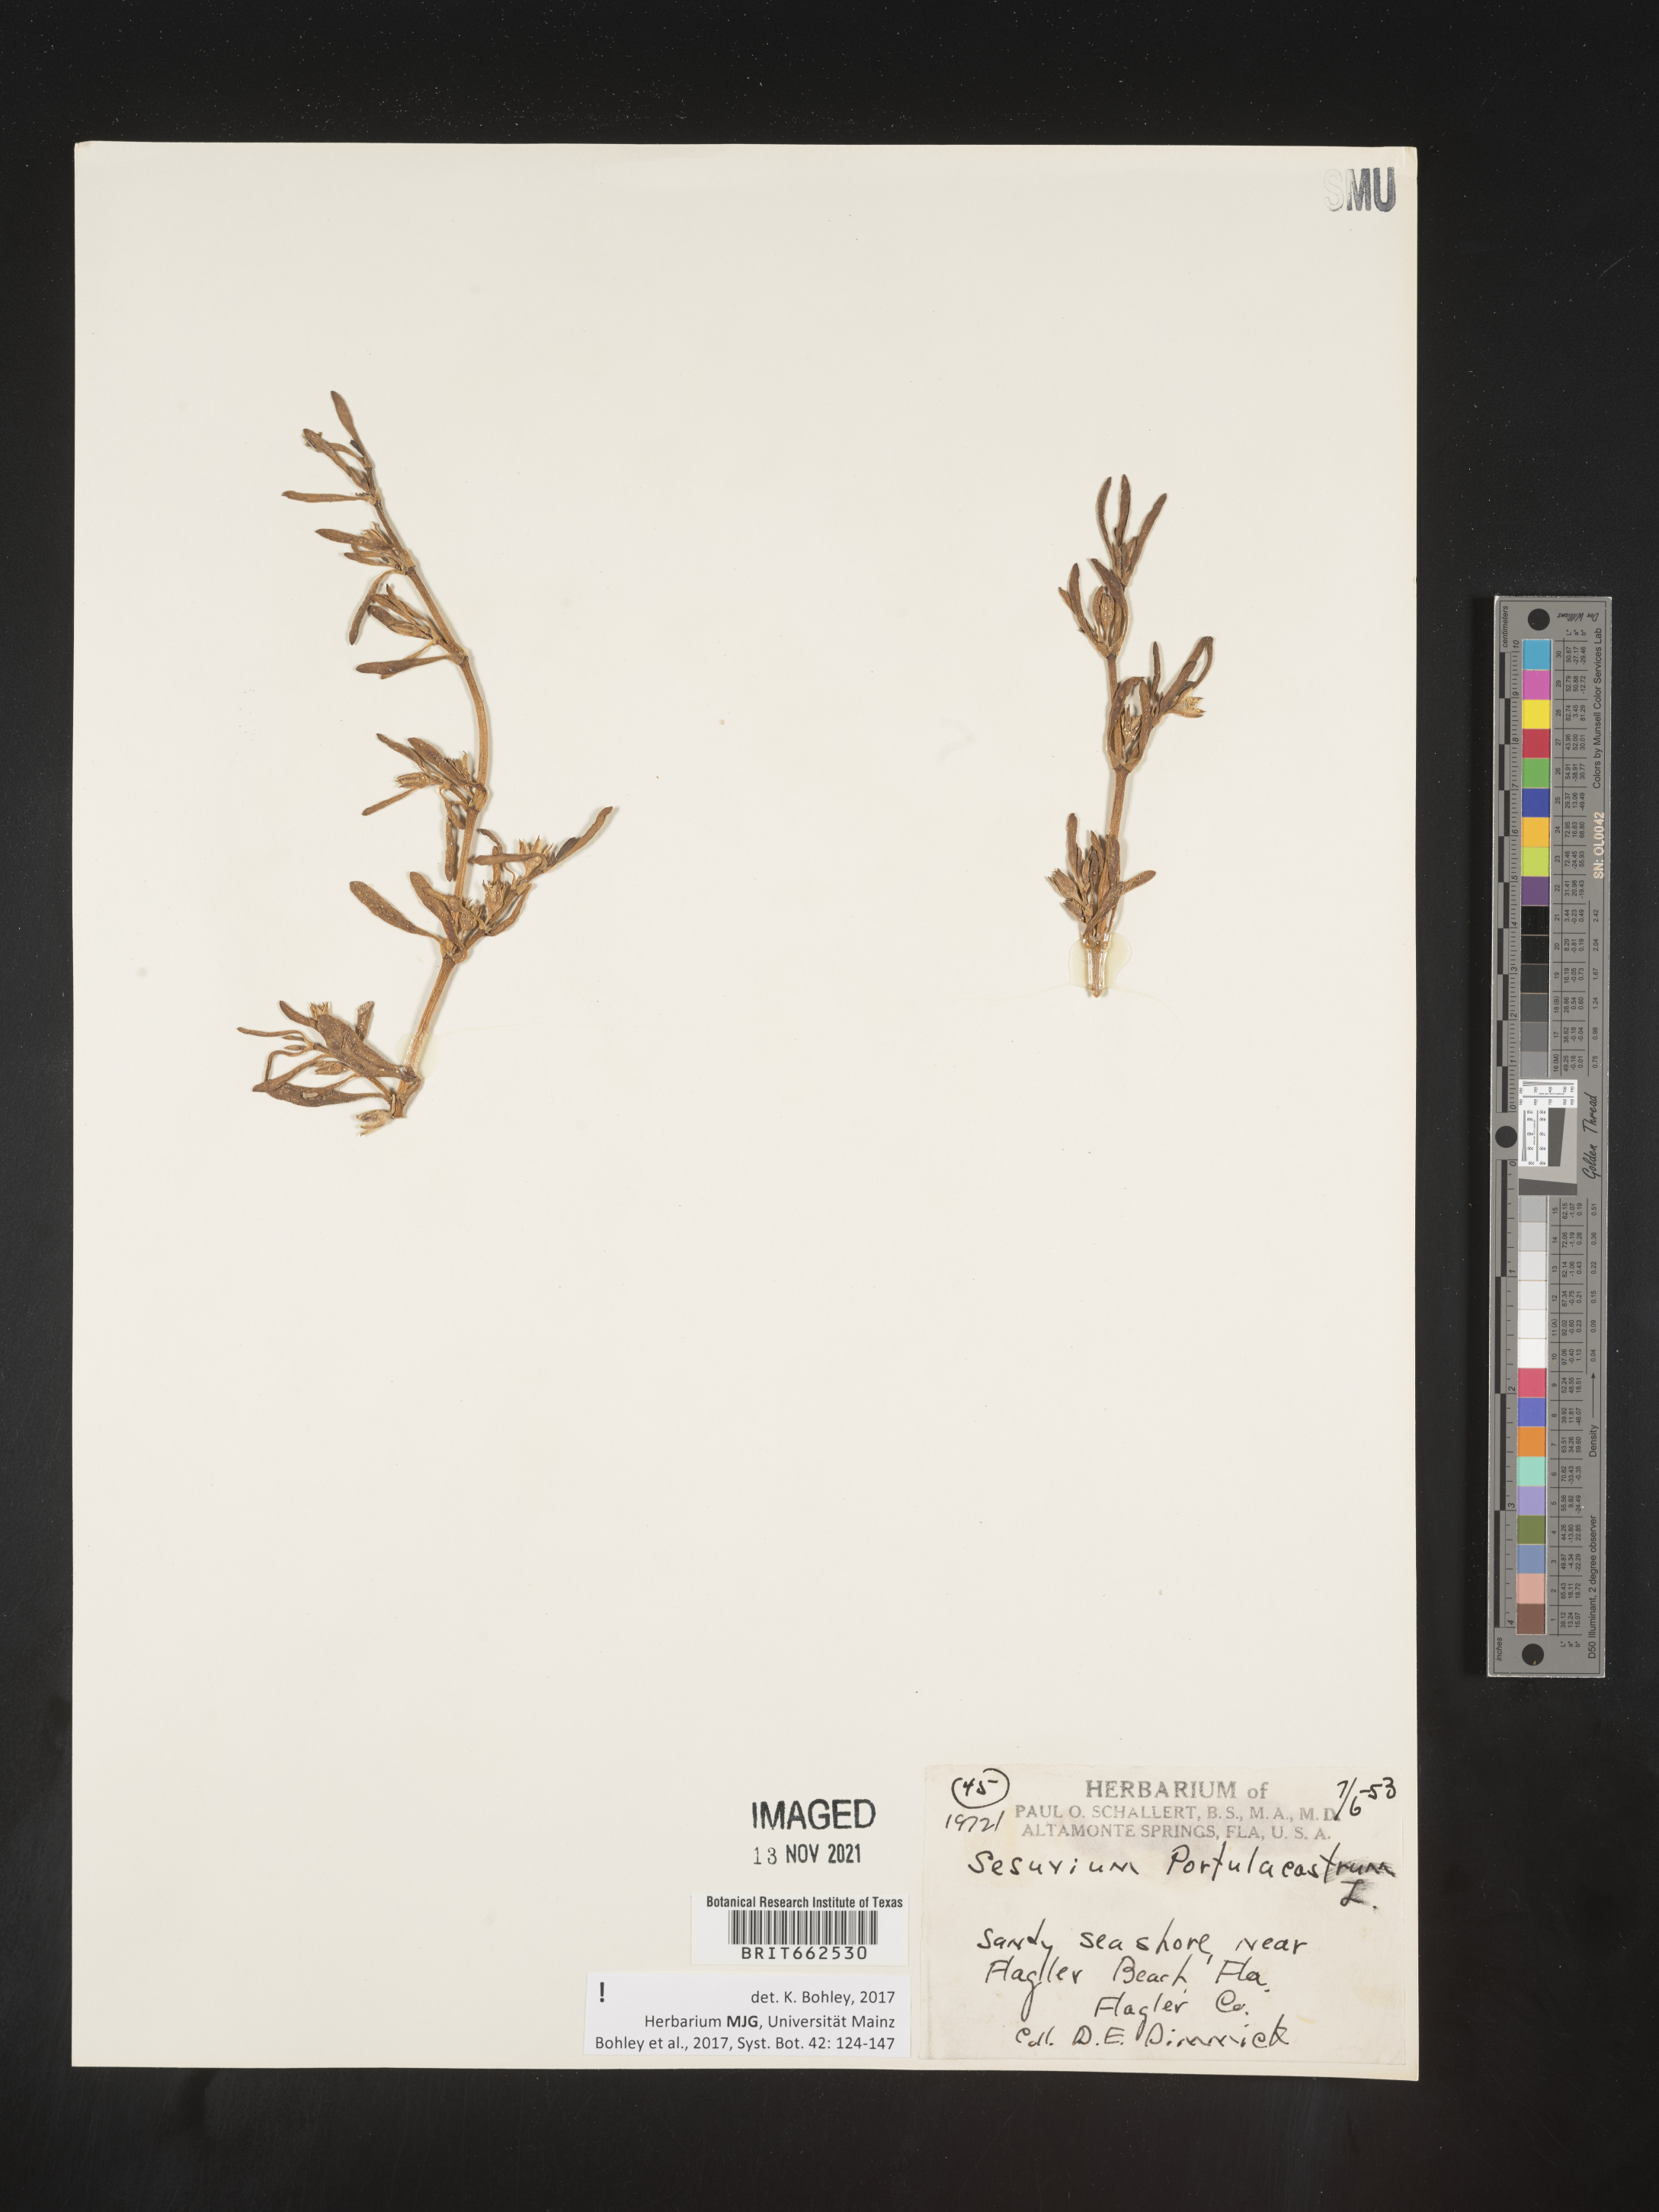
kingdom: Plantae
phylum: Tracheophyta
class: Magnoliopsida
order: Caryophyllales
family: Aizoaceae
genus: Sesuvium
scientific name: Sesuvium portulacastrum
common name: Sea-purslane
